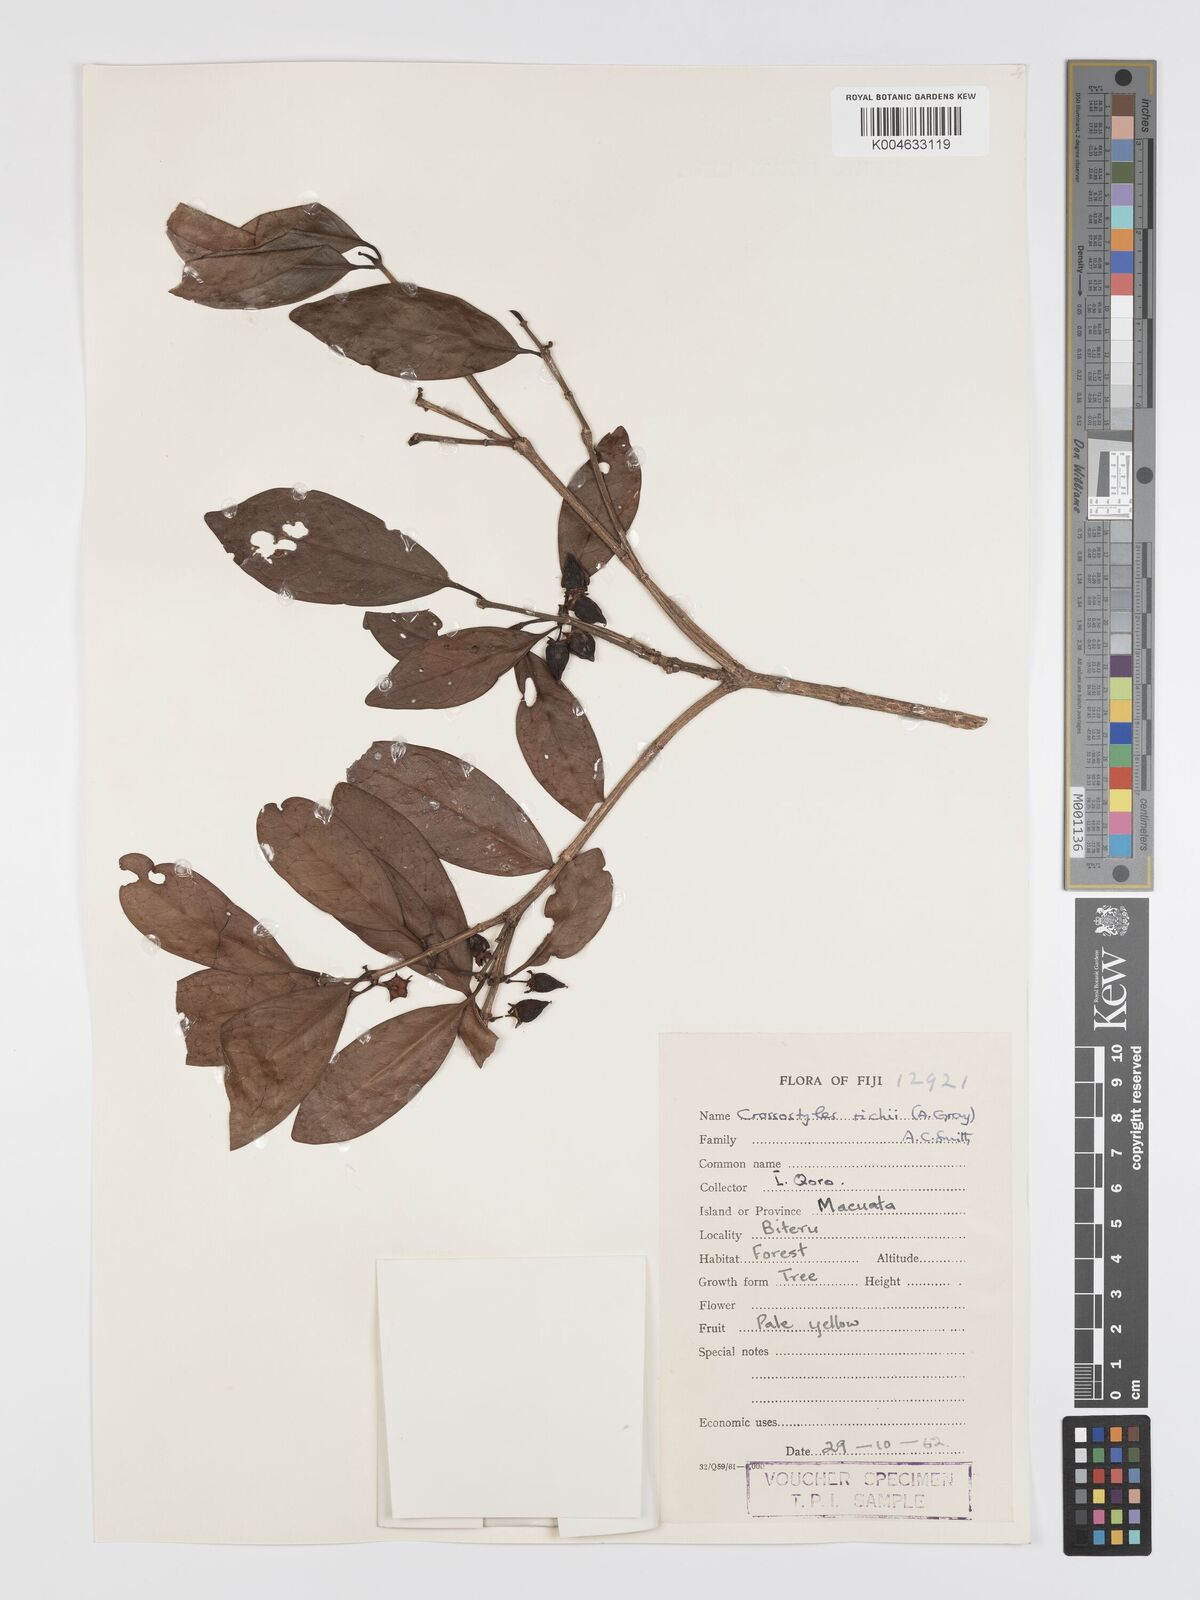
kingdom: Plantae
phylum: Tracheophyta
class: Magnoliopsida
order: Malpighiales
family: Rhizophoraceae
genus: Crossostylis
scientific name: Crossostylis richii
